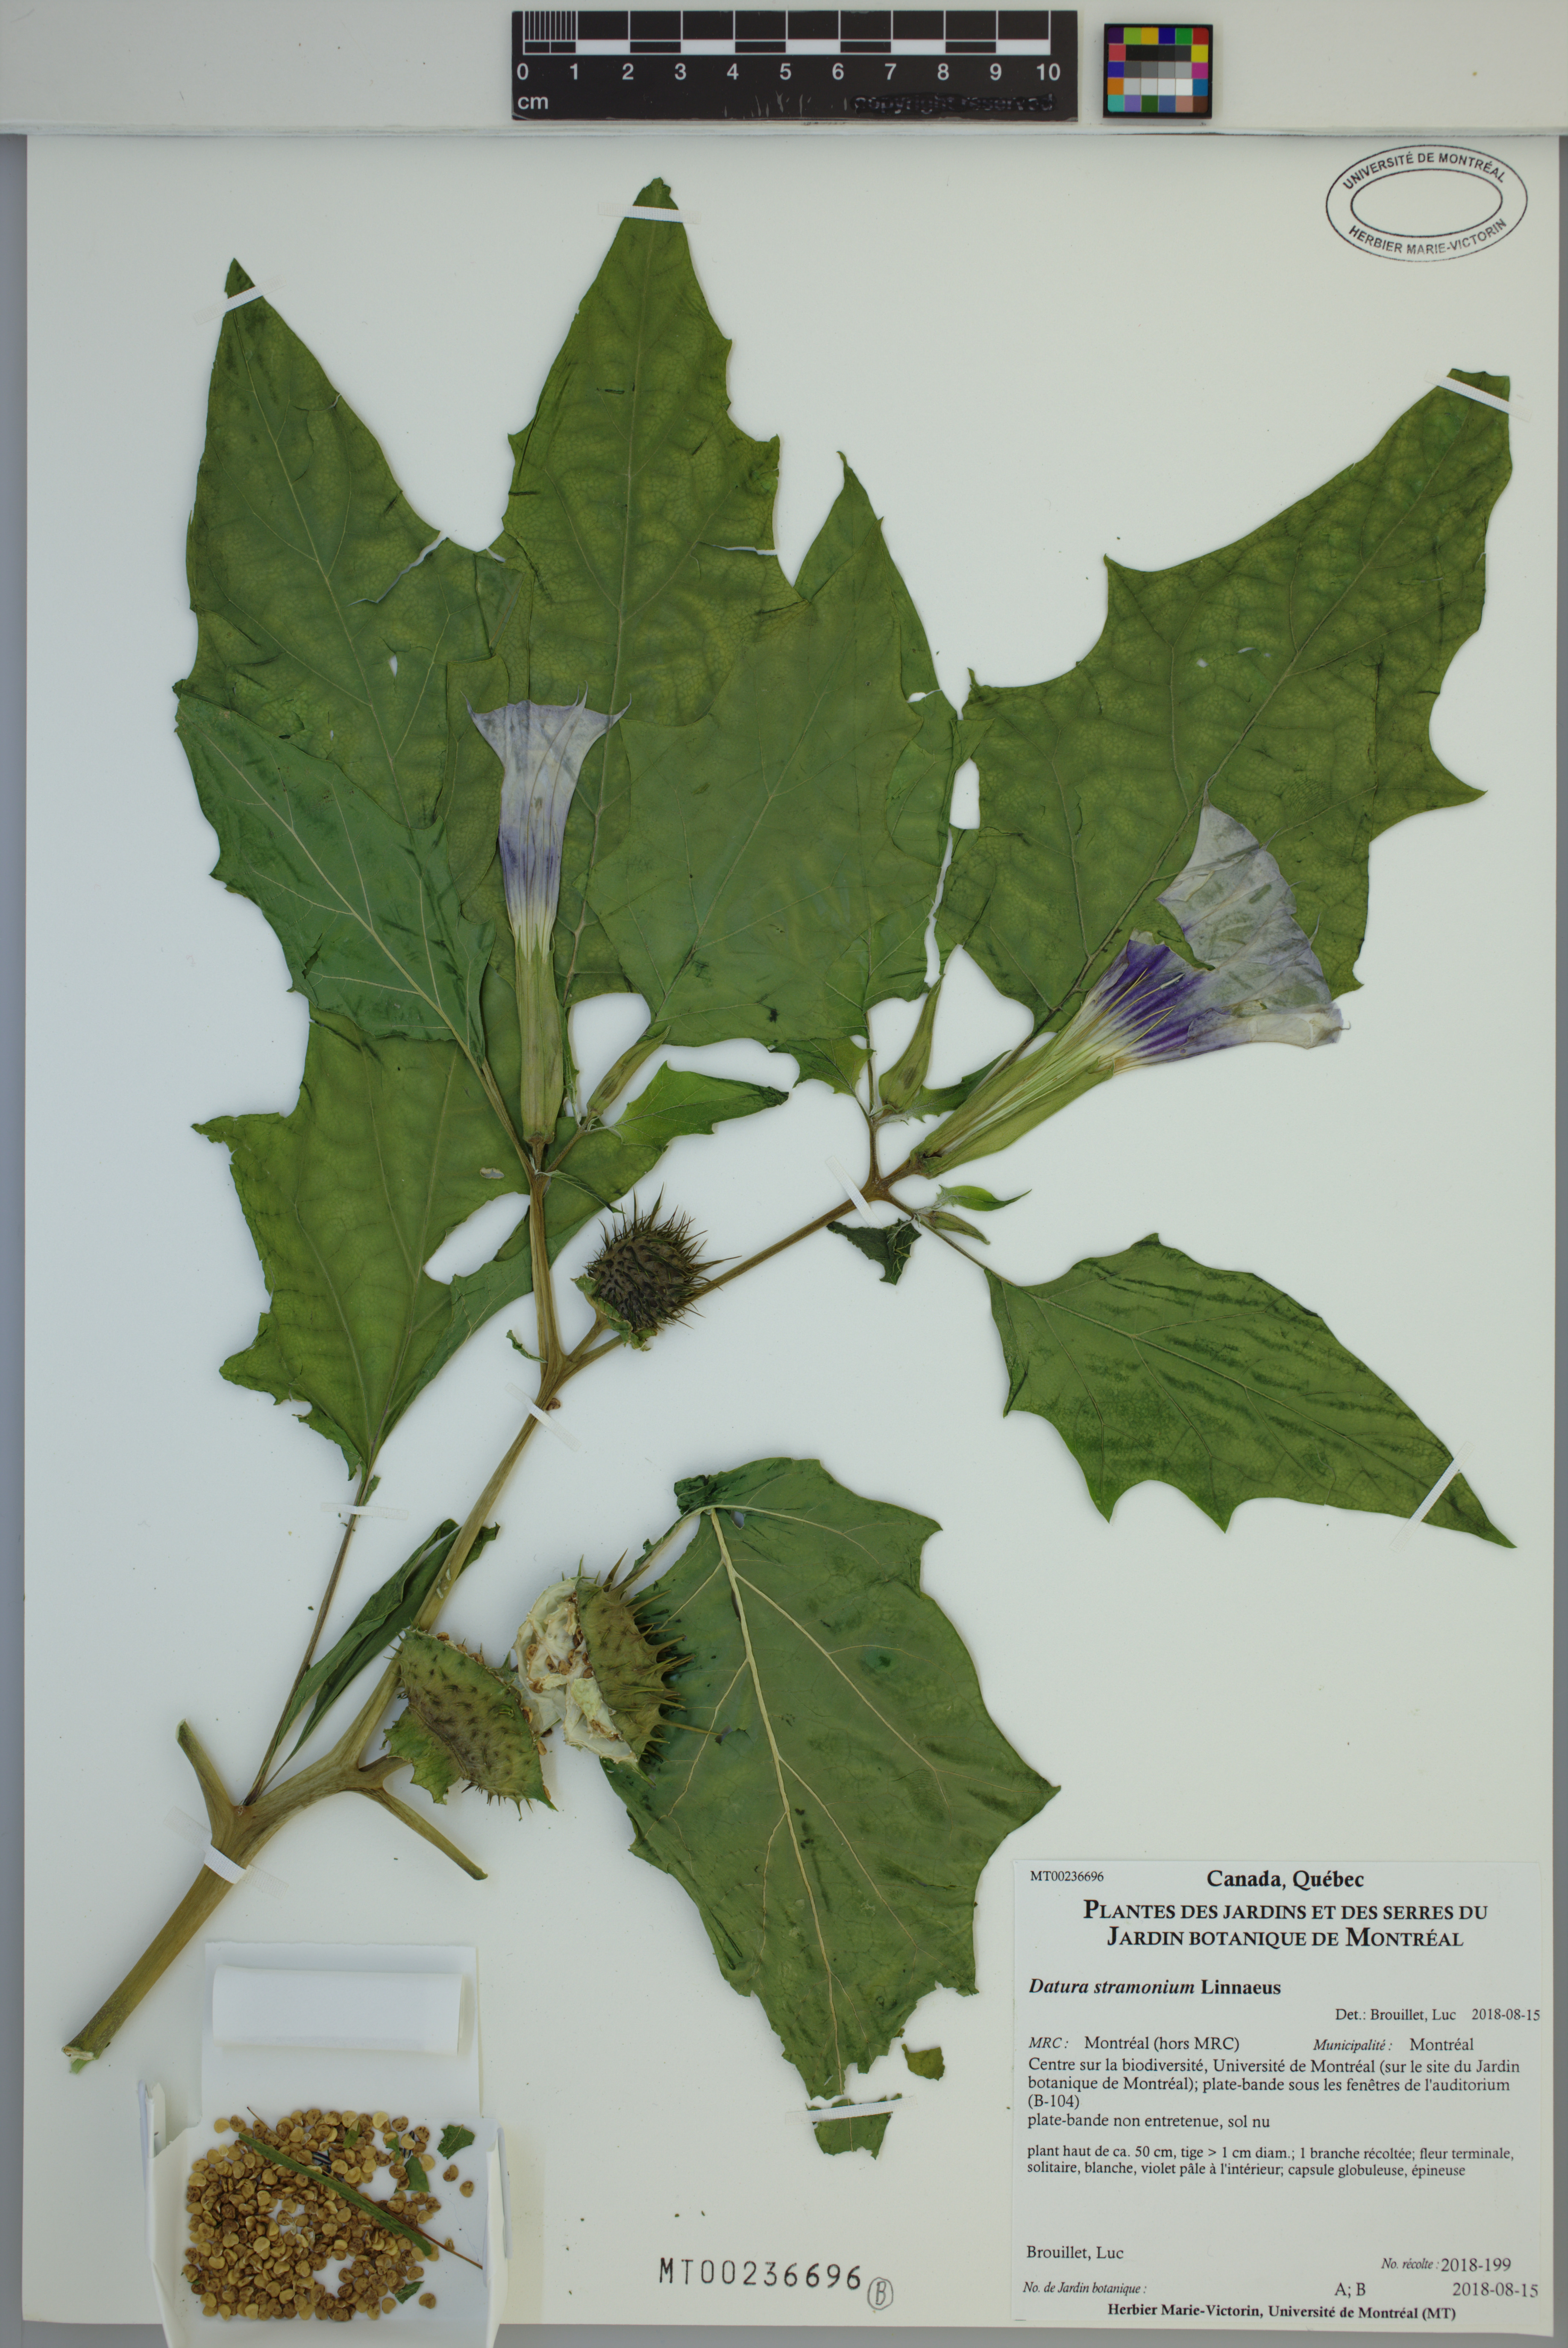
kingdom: Plantae
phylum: Tracheophyta
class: Magnoliopsida
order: Solanales
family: Solanaceae
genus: Datura
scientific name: Datura stramonium
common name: Thorn-apple
